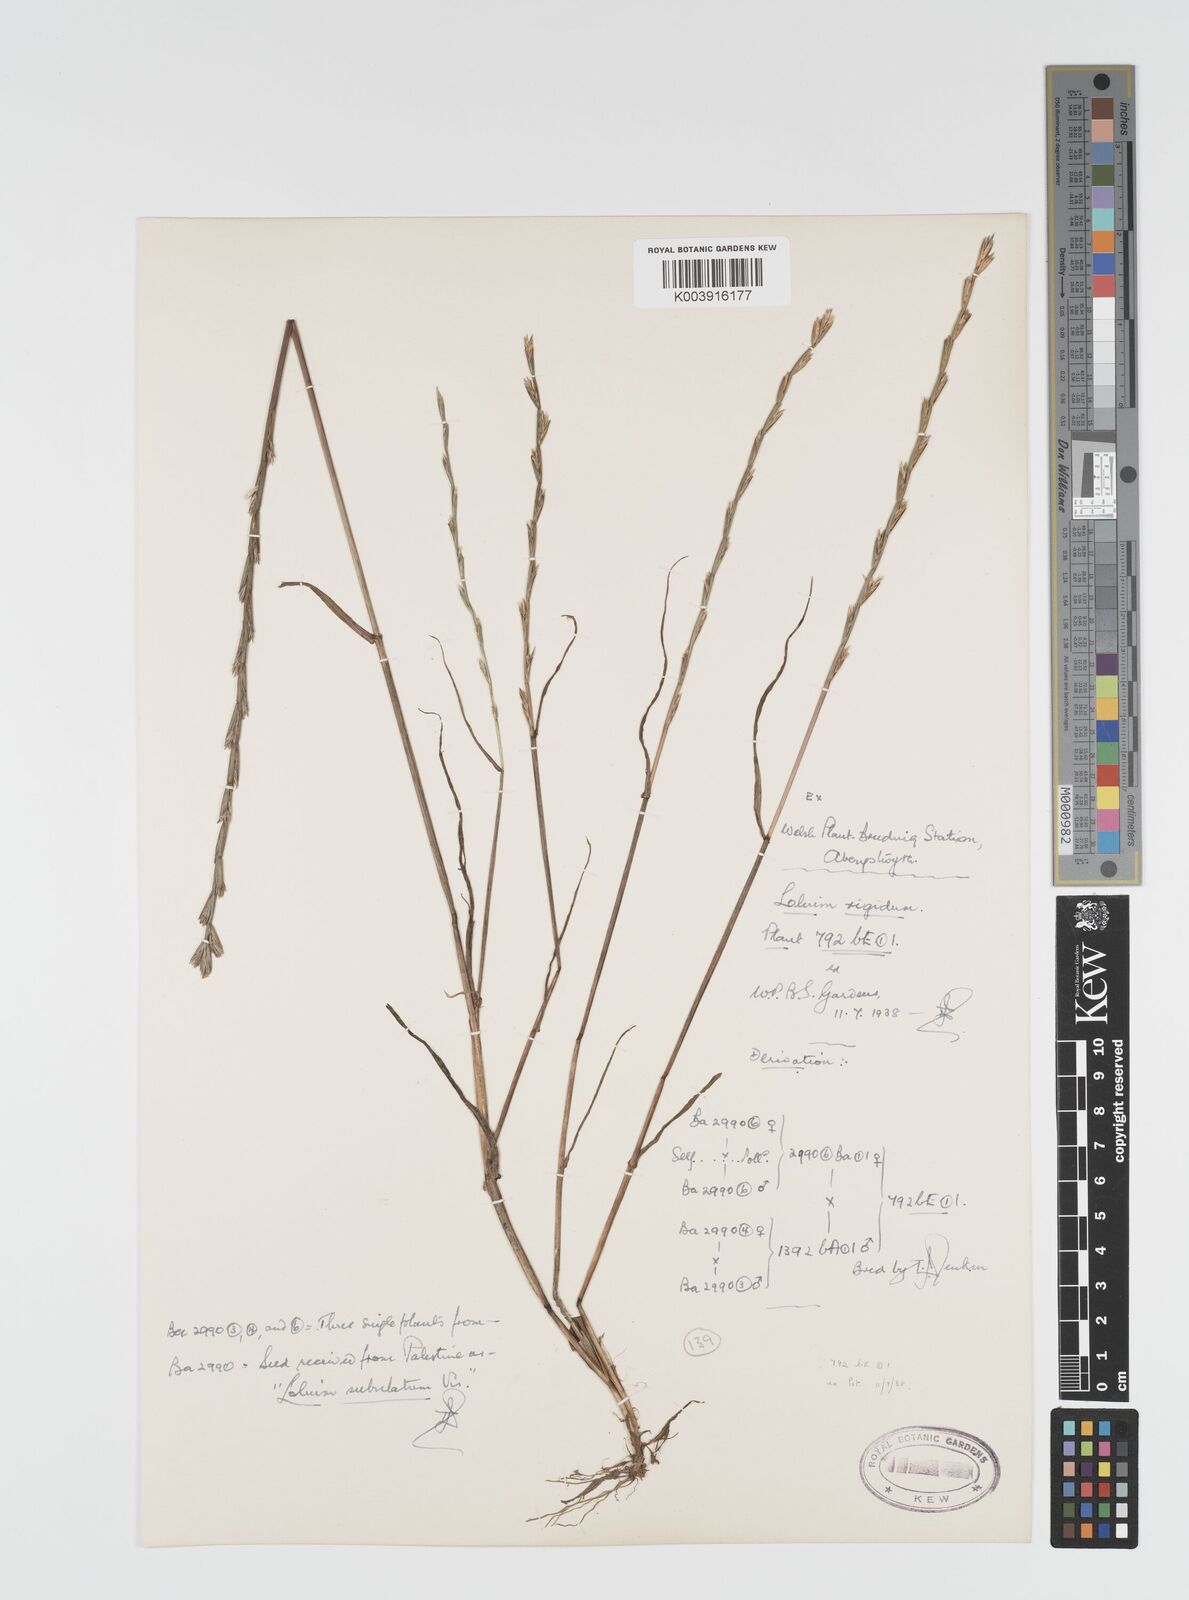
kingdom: Plantae
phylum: Tracheophyta
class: Liliopsida
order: Poales
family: Poaceae
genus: Lolium
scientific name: Lolium rigidum
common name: Wimmera ryegrass
